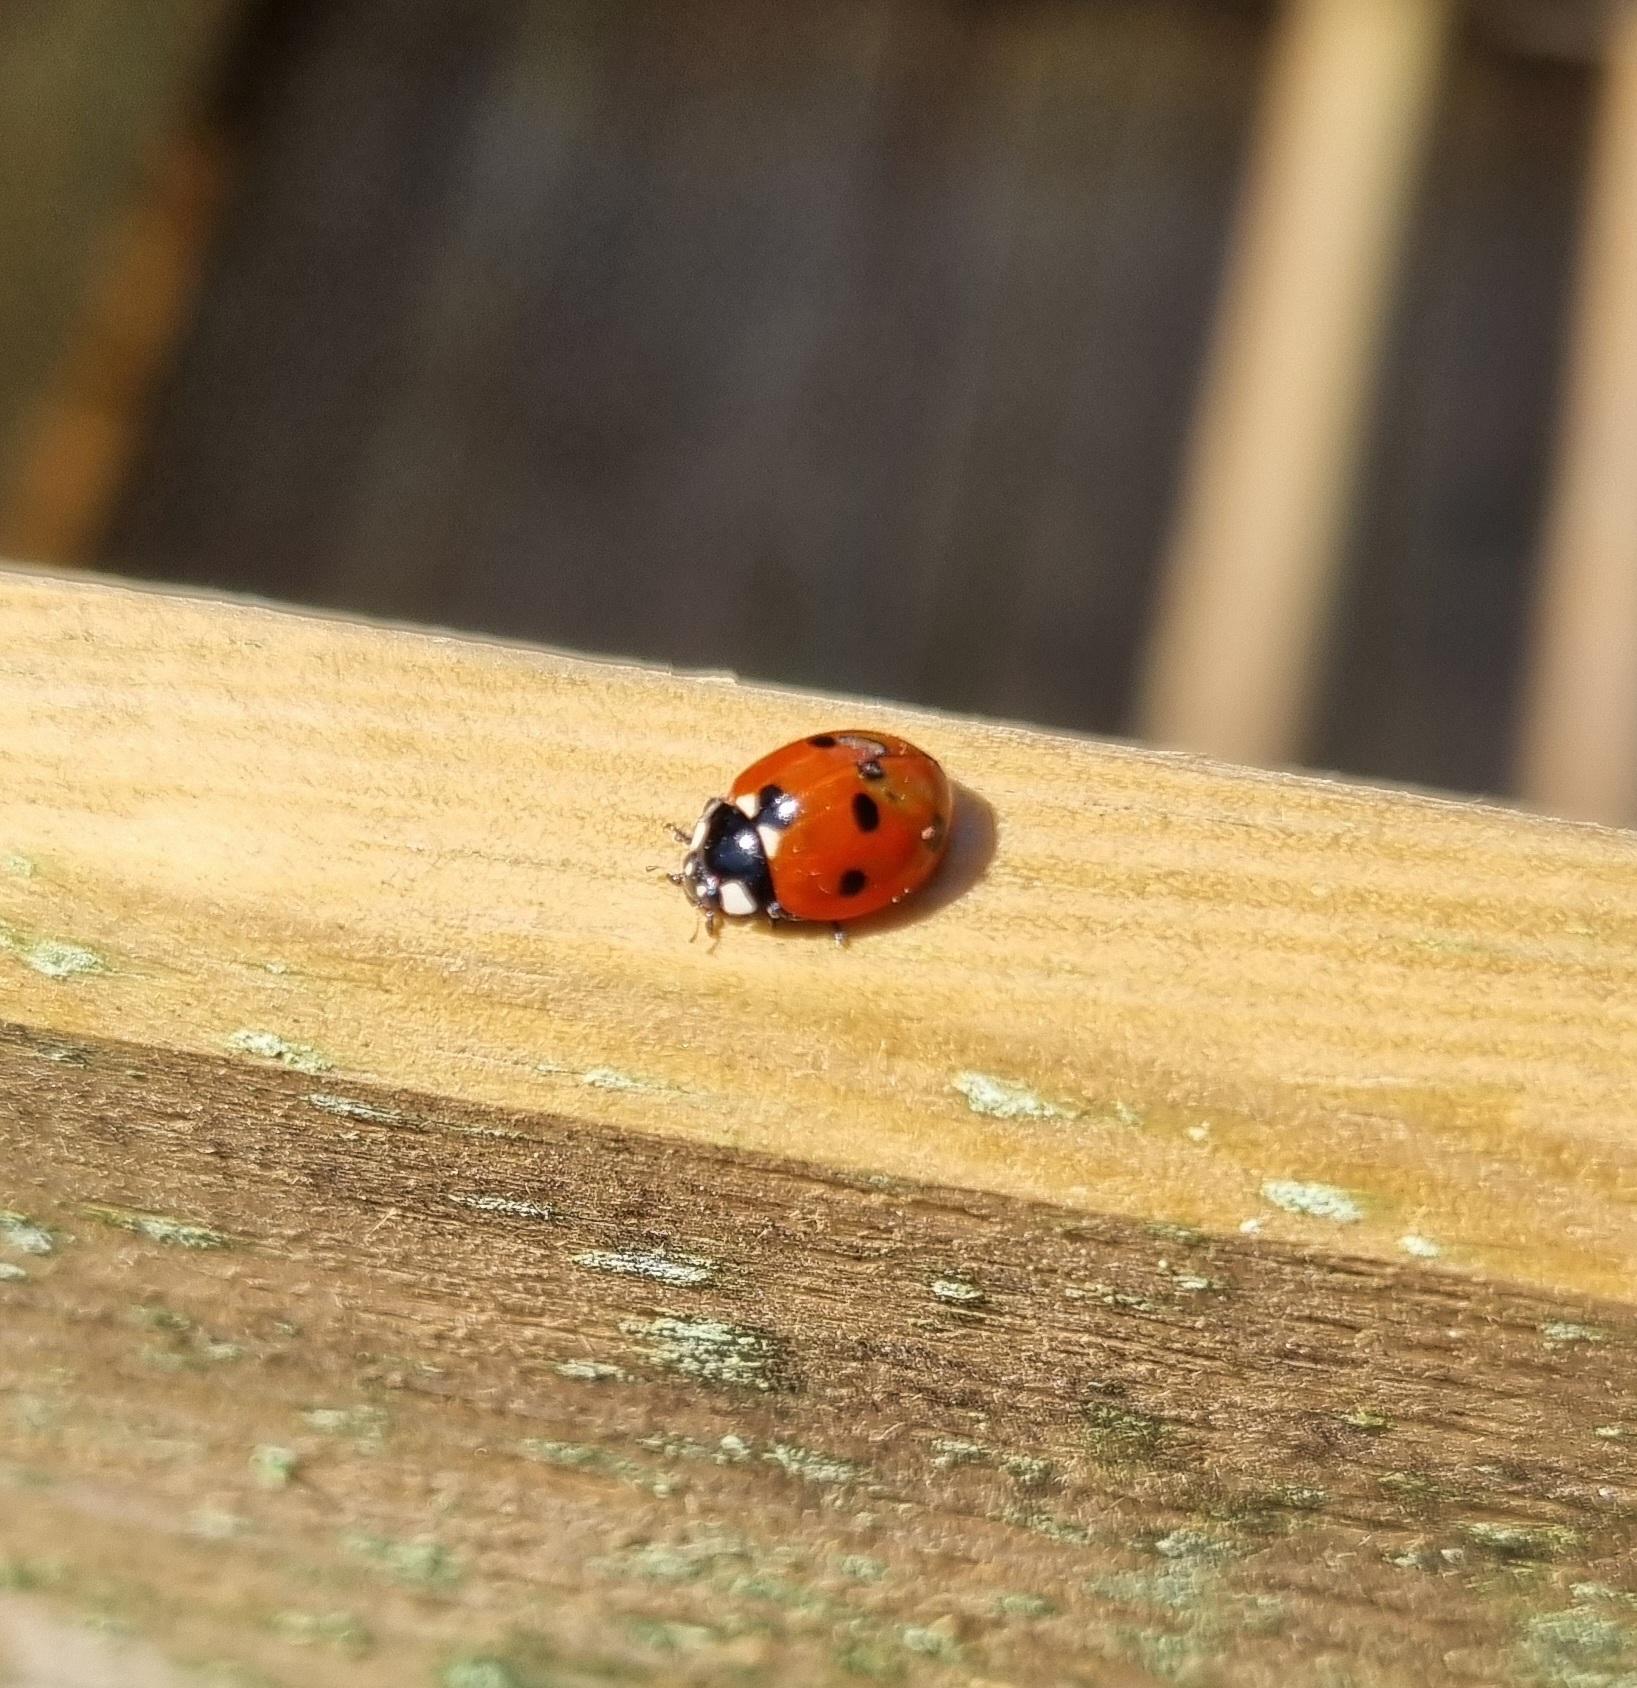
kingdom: Animalia
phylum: Arthropoda
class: Insecta
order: Coleoptera
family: Coccinellidae
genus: Coccinella
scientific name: Coccinella septempunctata
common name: Syvplettet mariehøne
